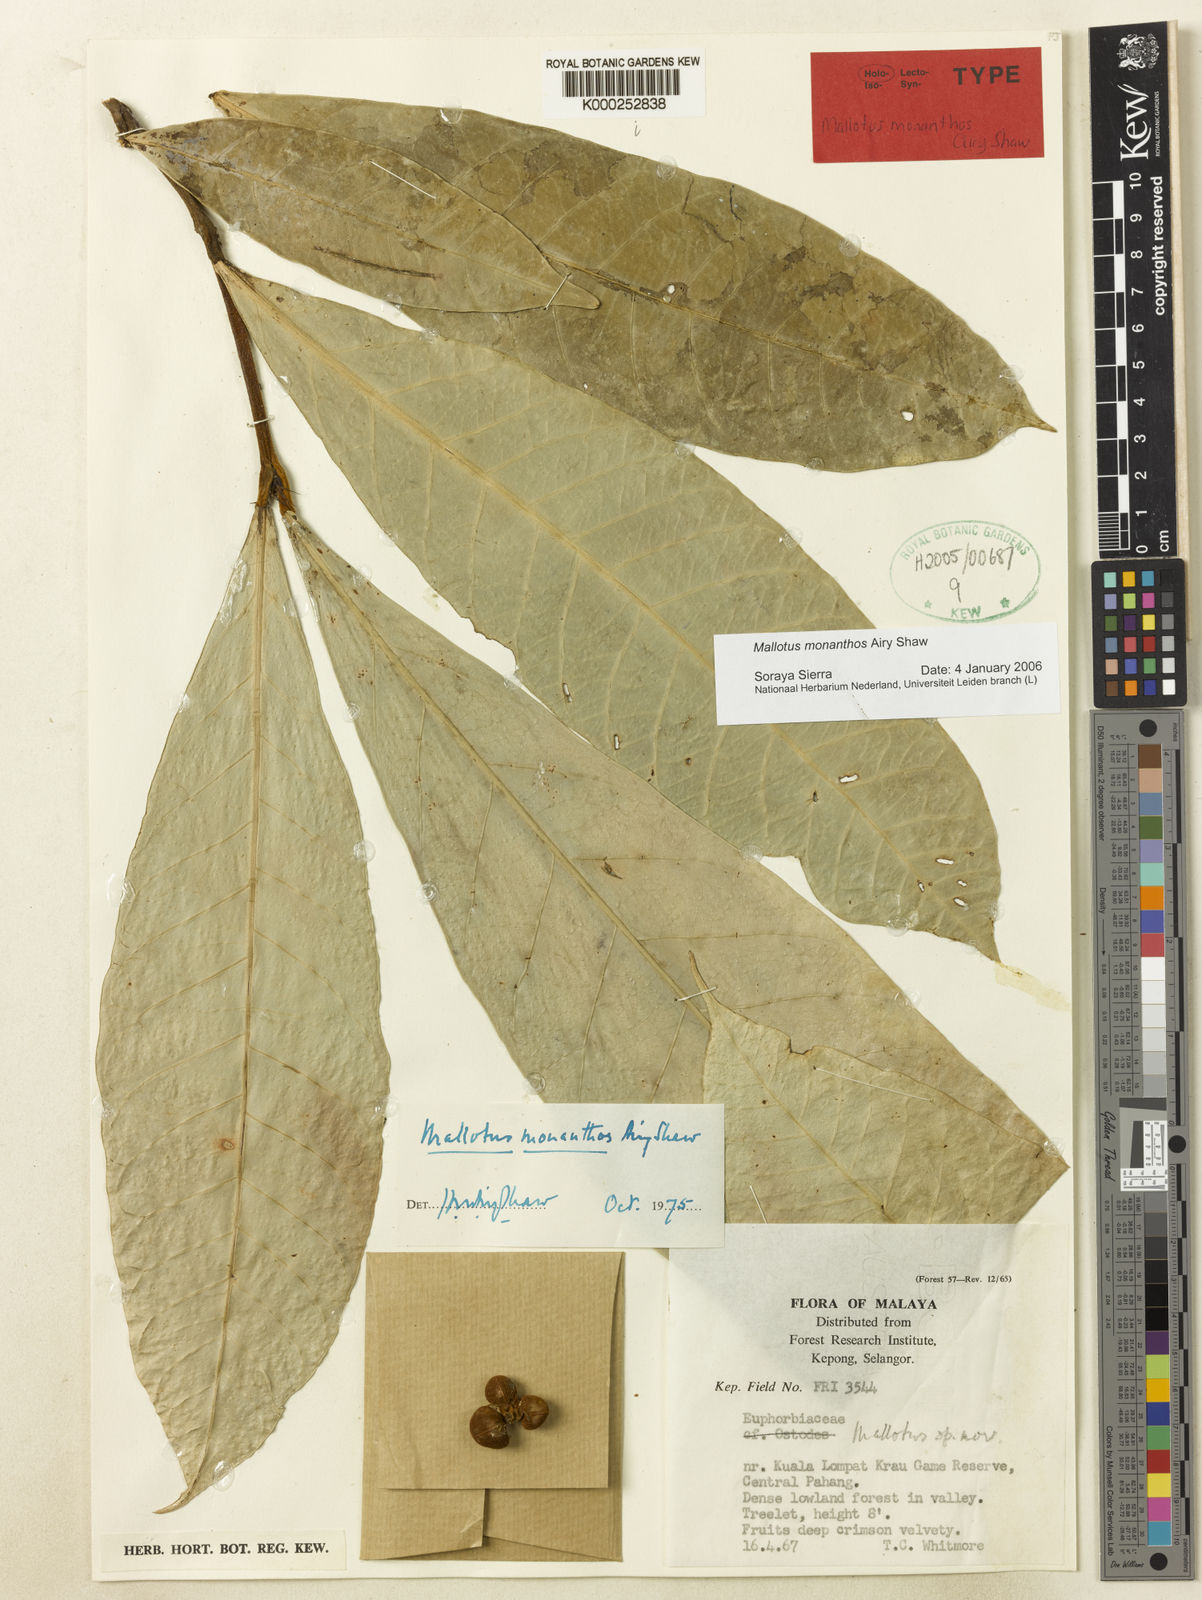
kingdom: Plantae
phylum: Tracheophyta
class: Magnoliopsida
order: Malpighiales
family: Euphorbiaceae
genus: Mallotus
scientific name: Mallotus monanthos
